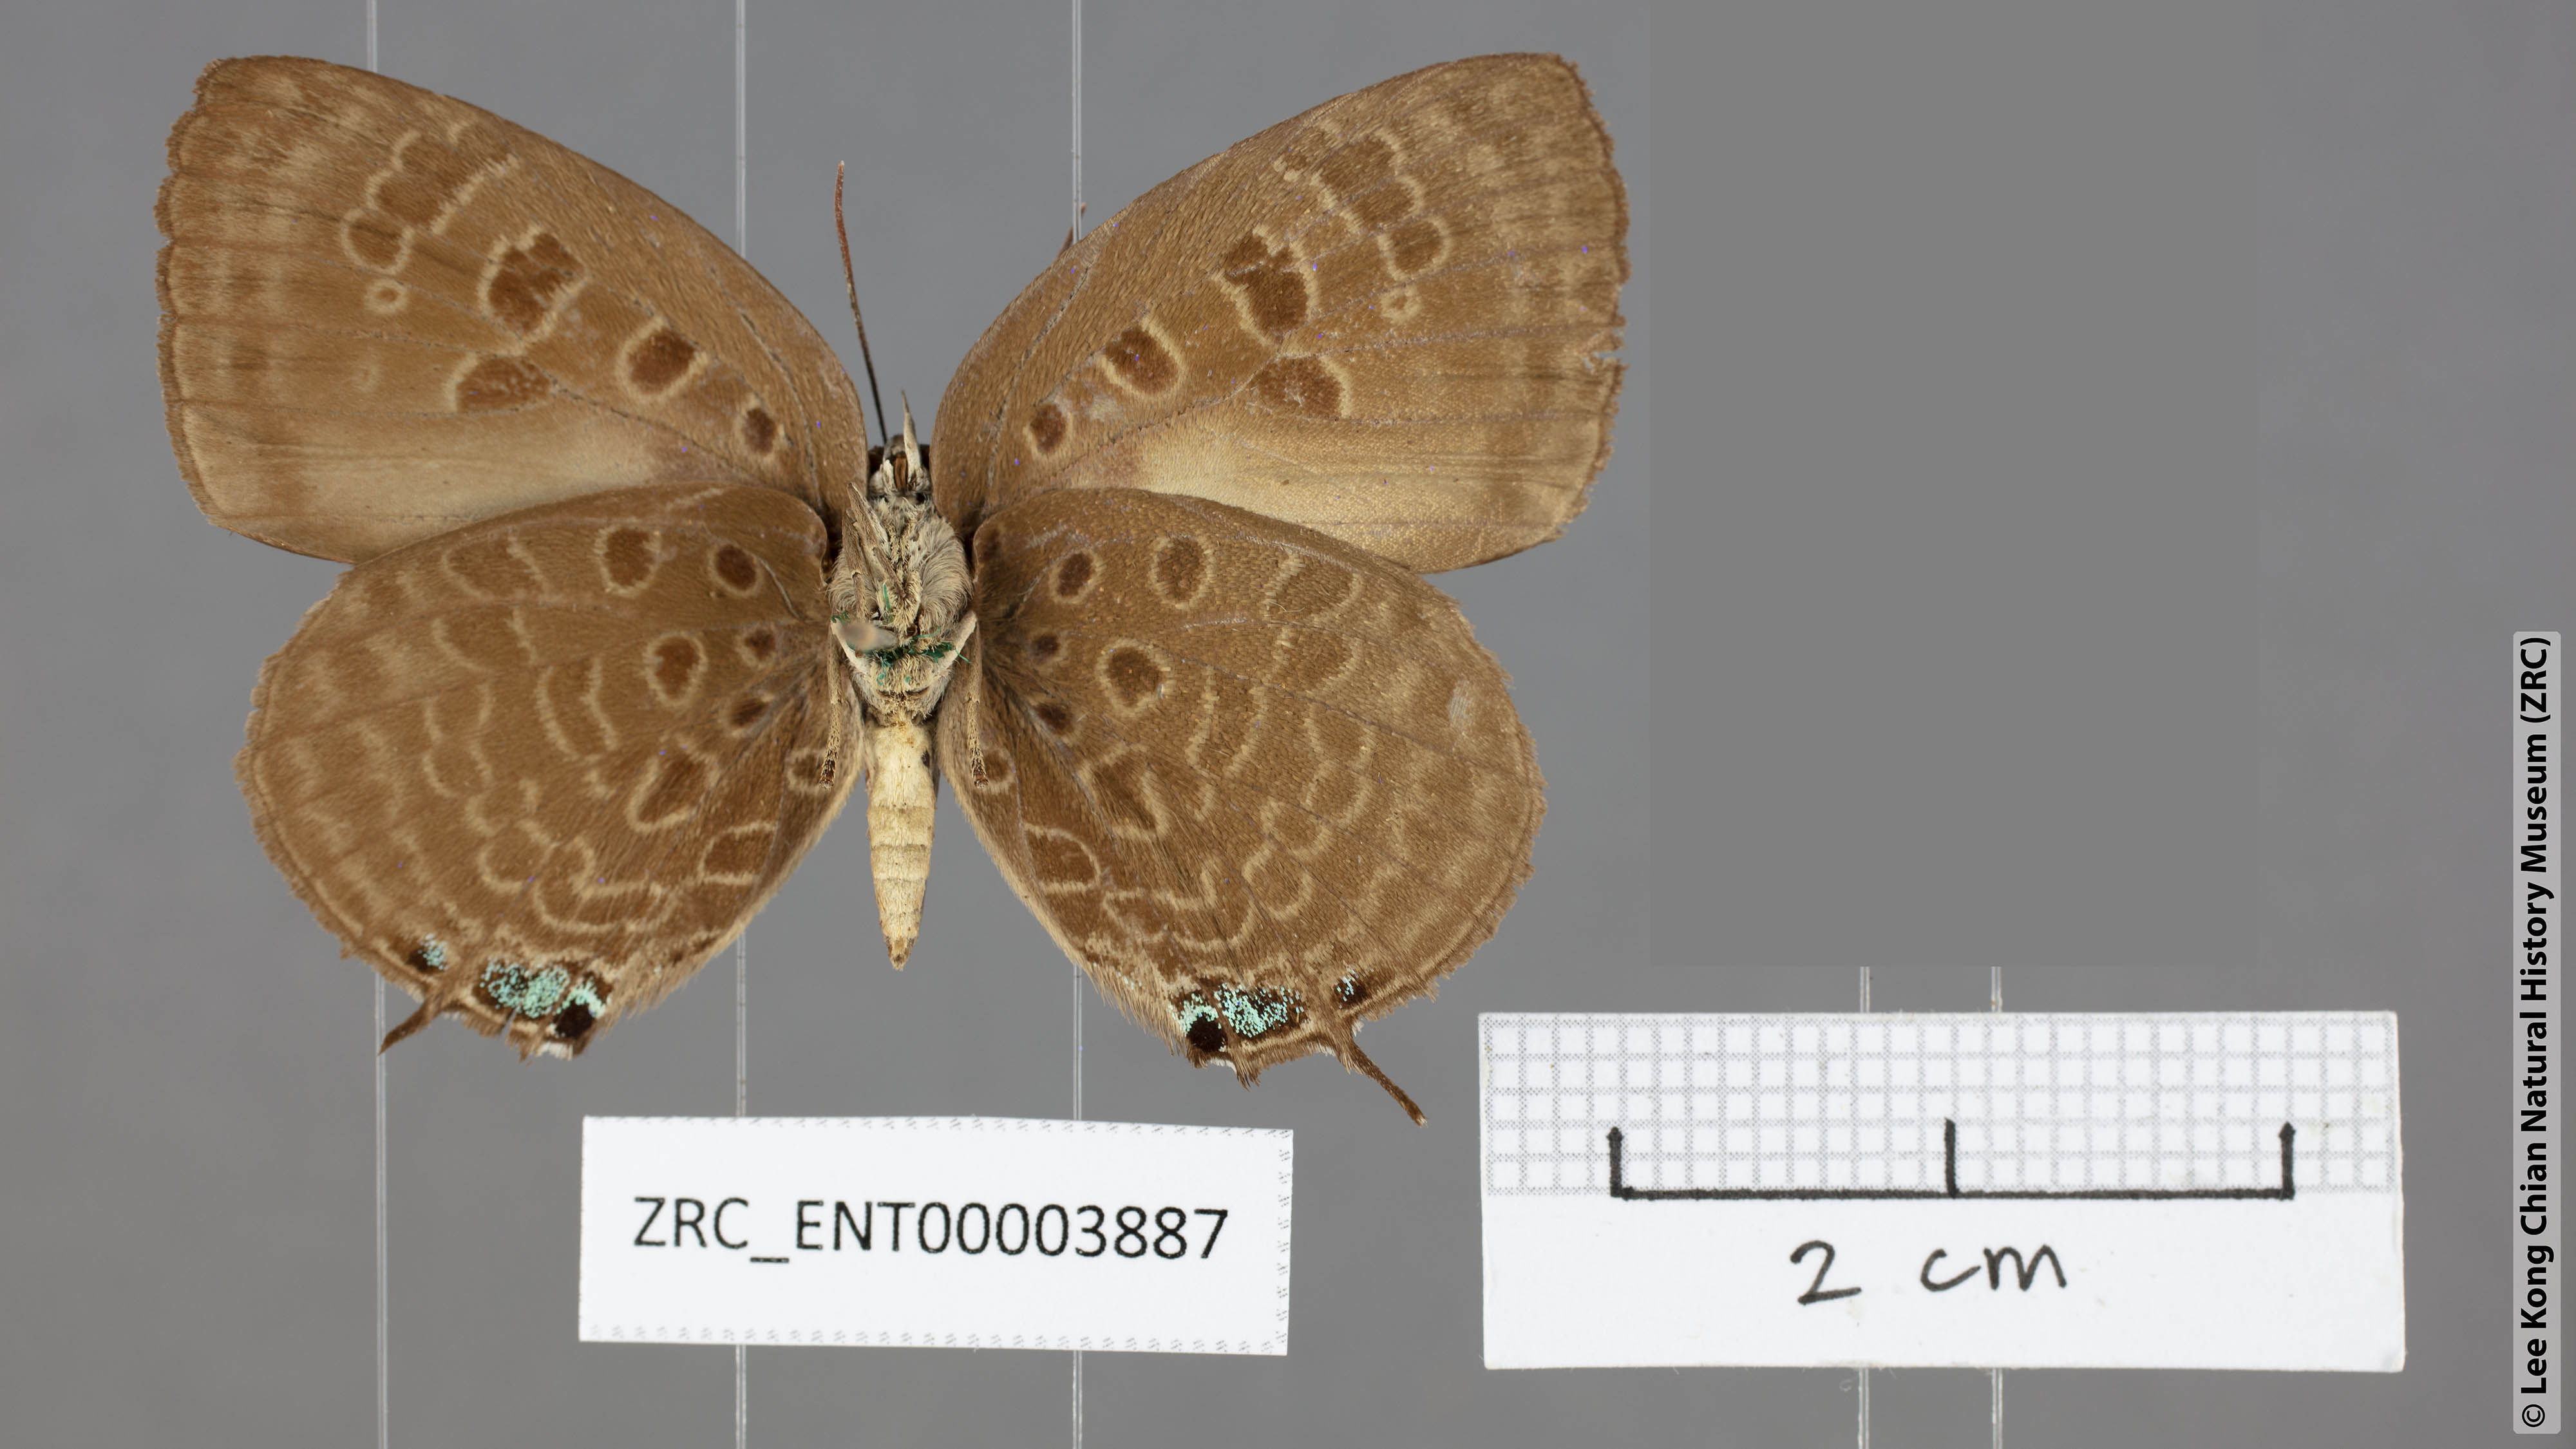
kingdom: Animalia
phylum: Arthropoda
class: Insecta
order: Lepidoptera
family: Lycaenidae
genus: Arhopala
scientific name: Arhopala barami
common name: Wood's oakblue
